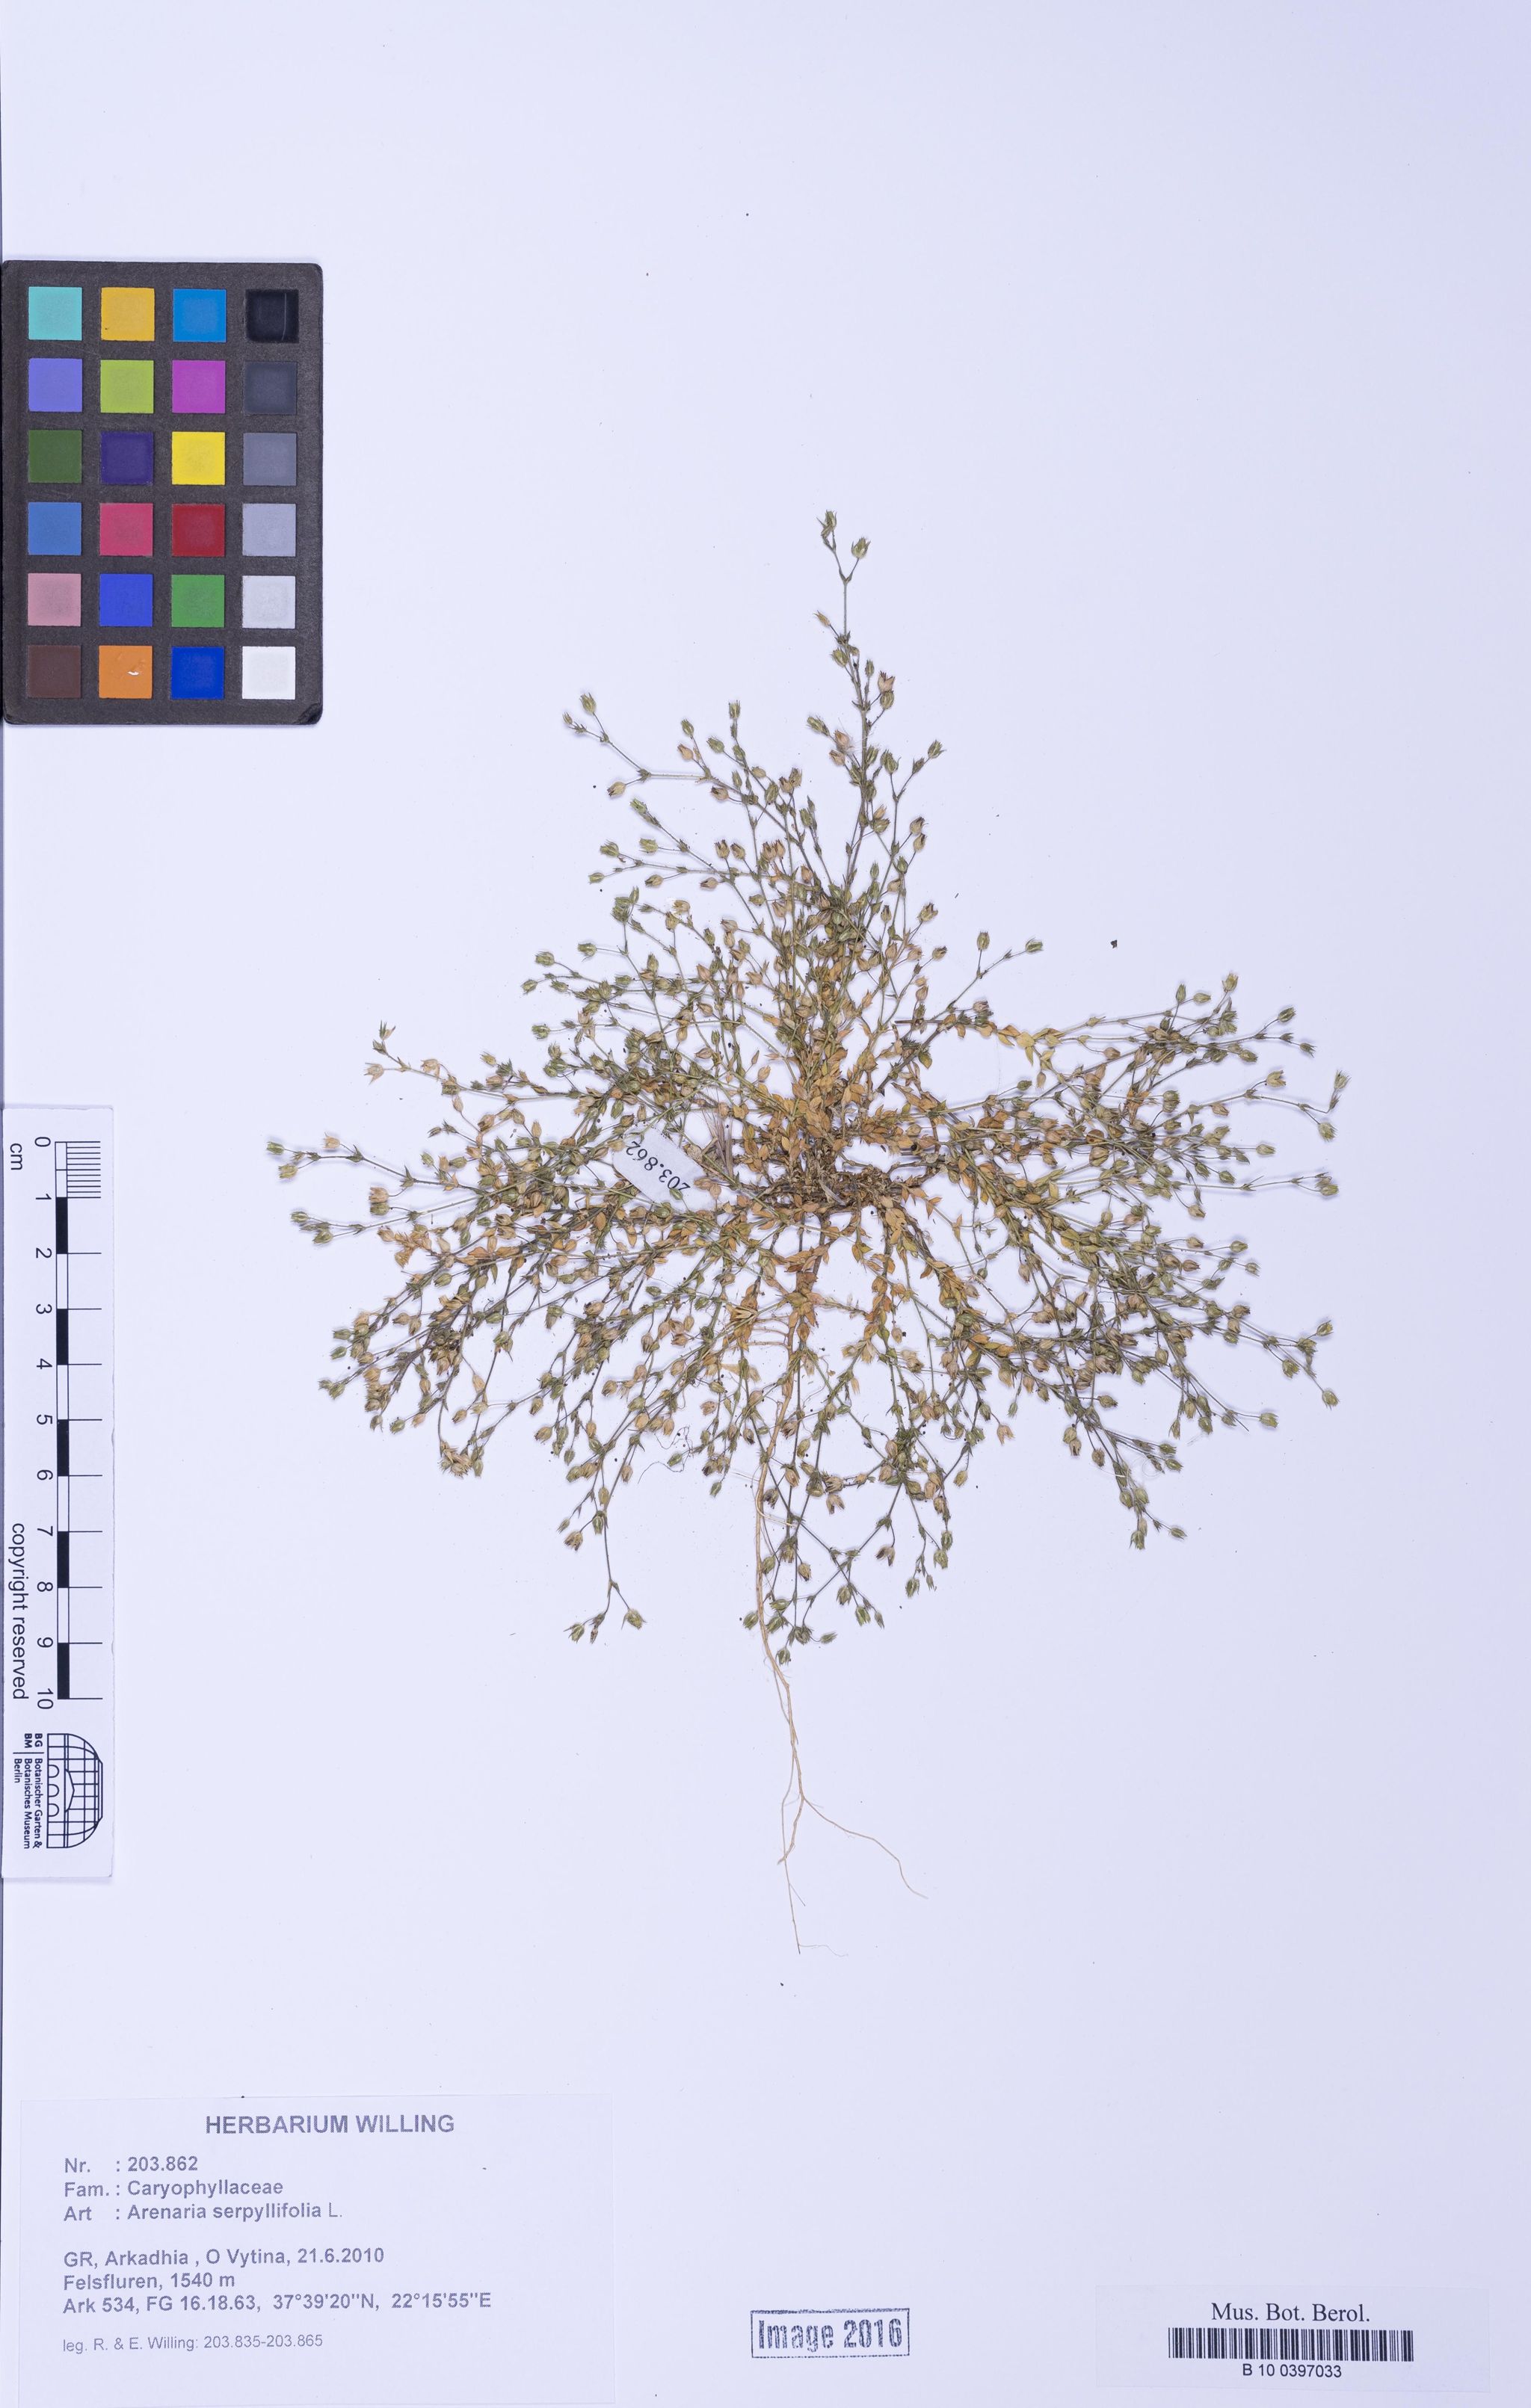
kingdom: Plantae
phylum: Tracheophyta
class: Magnoliopsida
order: Caryophyllales
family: Caryophyllaceae
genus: Arenaria
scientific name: Arenaria serpyllifolia
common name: Thyme-leaved sandwort
